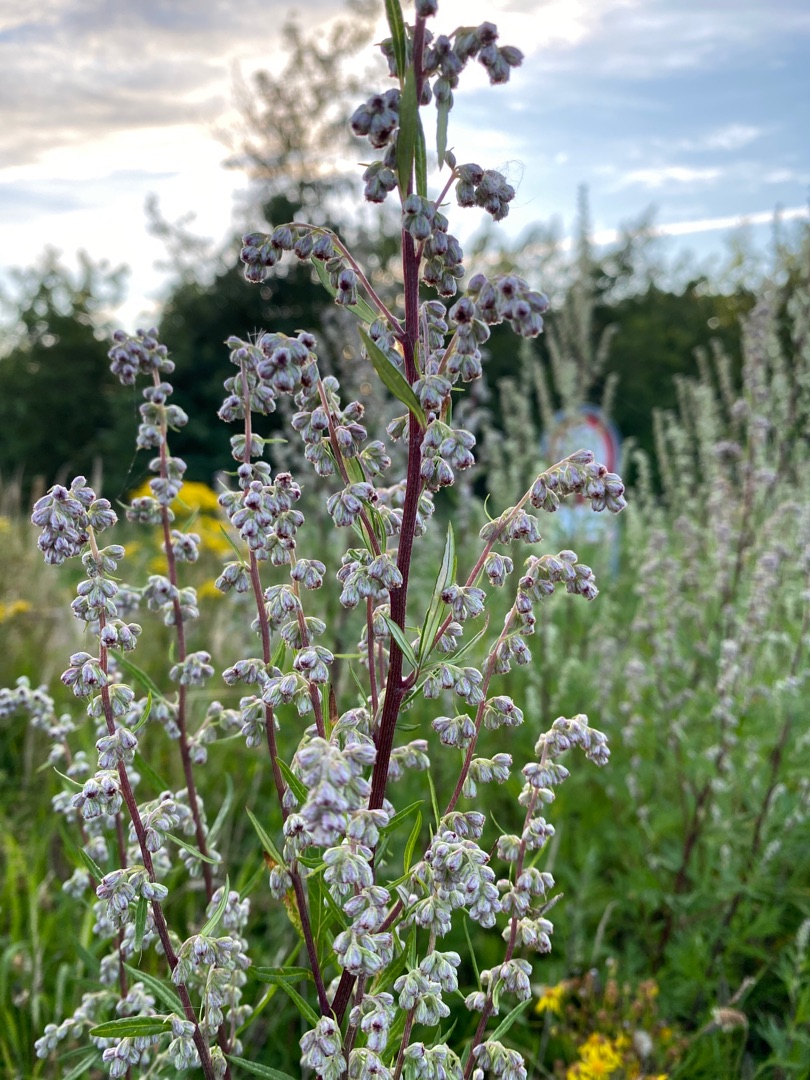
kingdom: Plantae
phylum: Tracheophyta
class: Magnoliopsida
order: Asterales
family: Asteraceae
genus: Artemisia
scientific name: Artemisia vulgaris
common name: Grå-bynke
